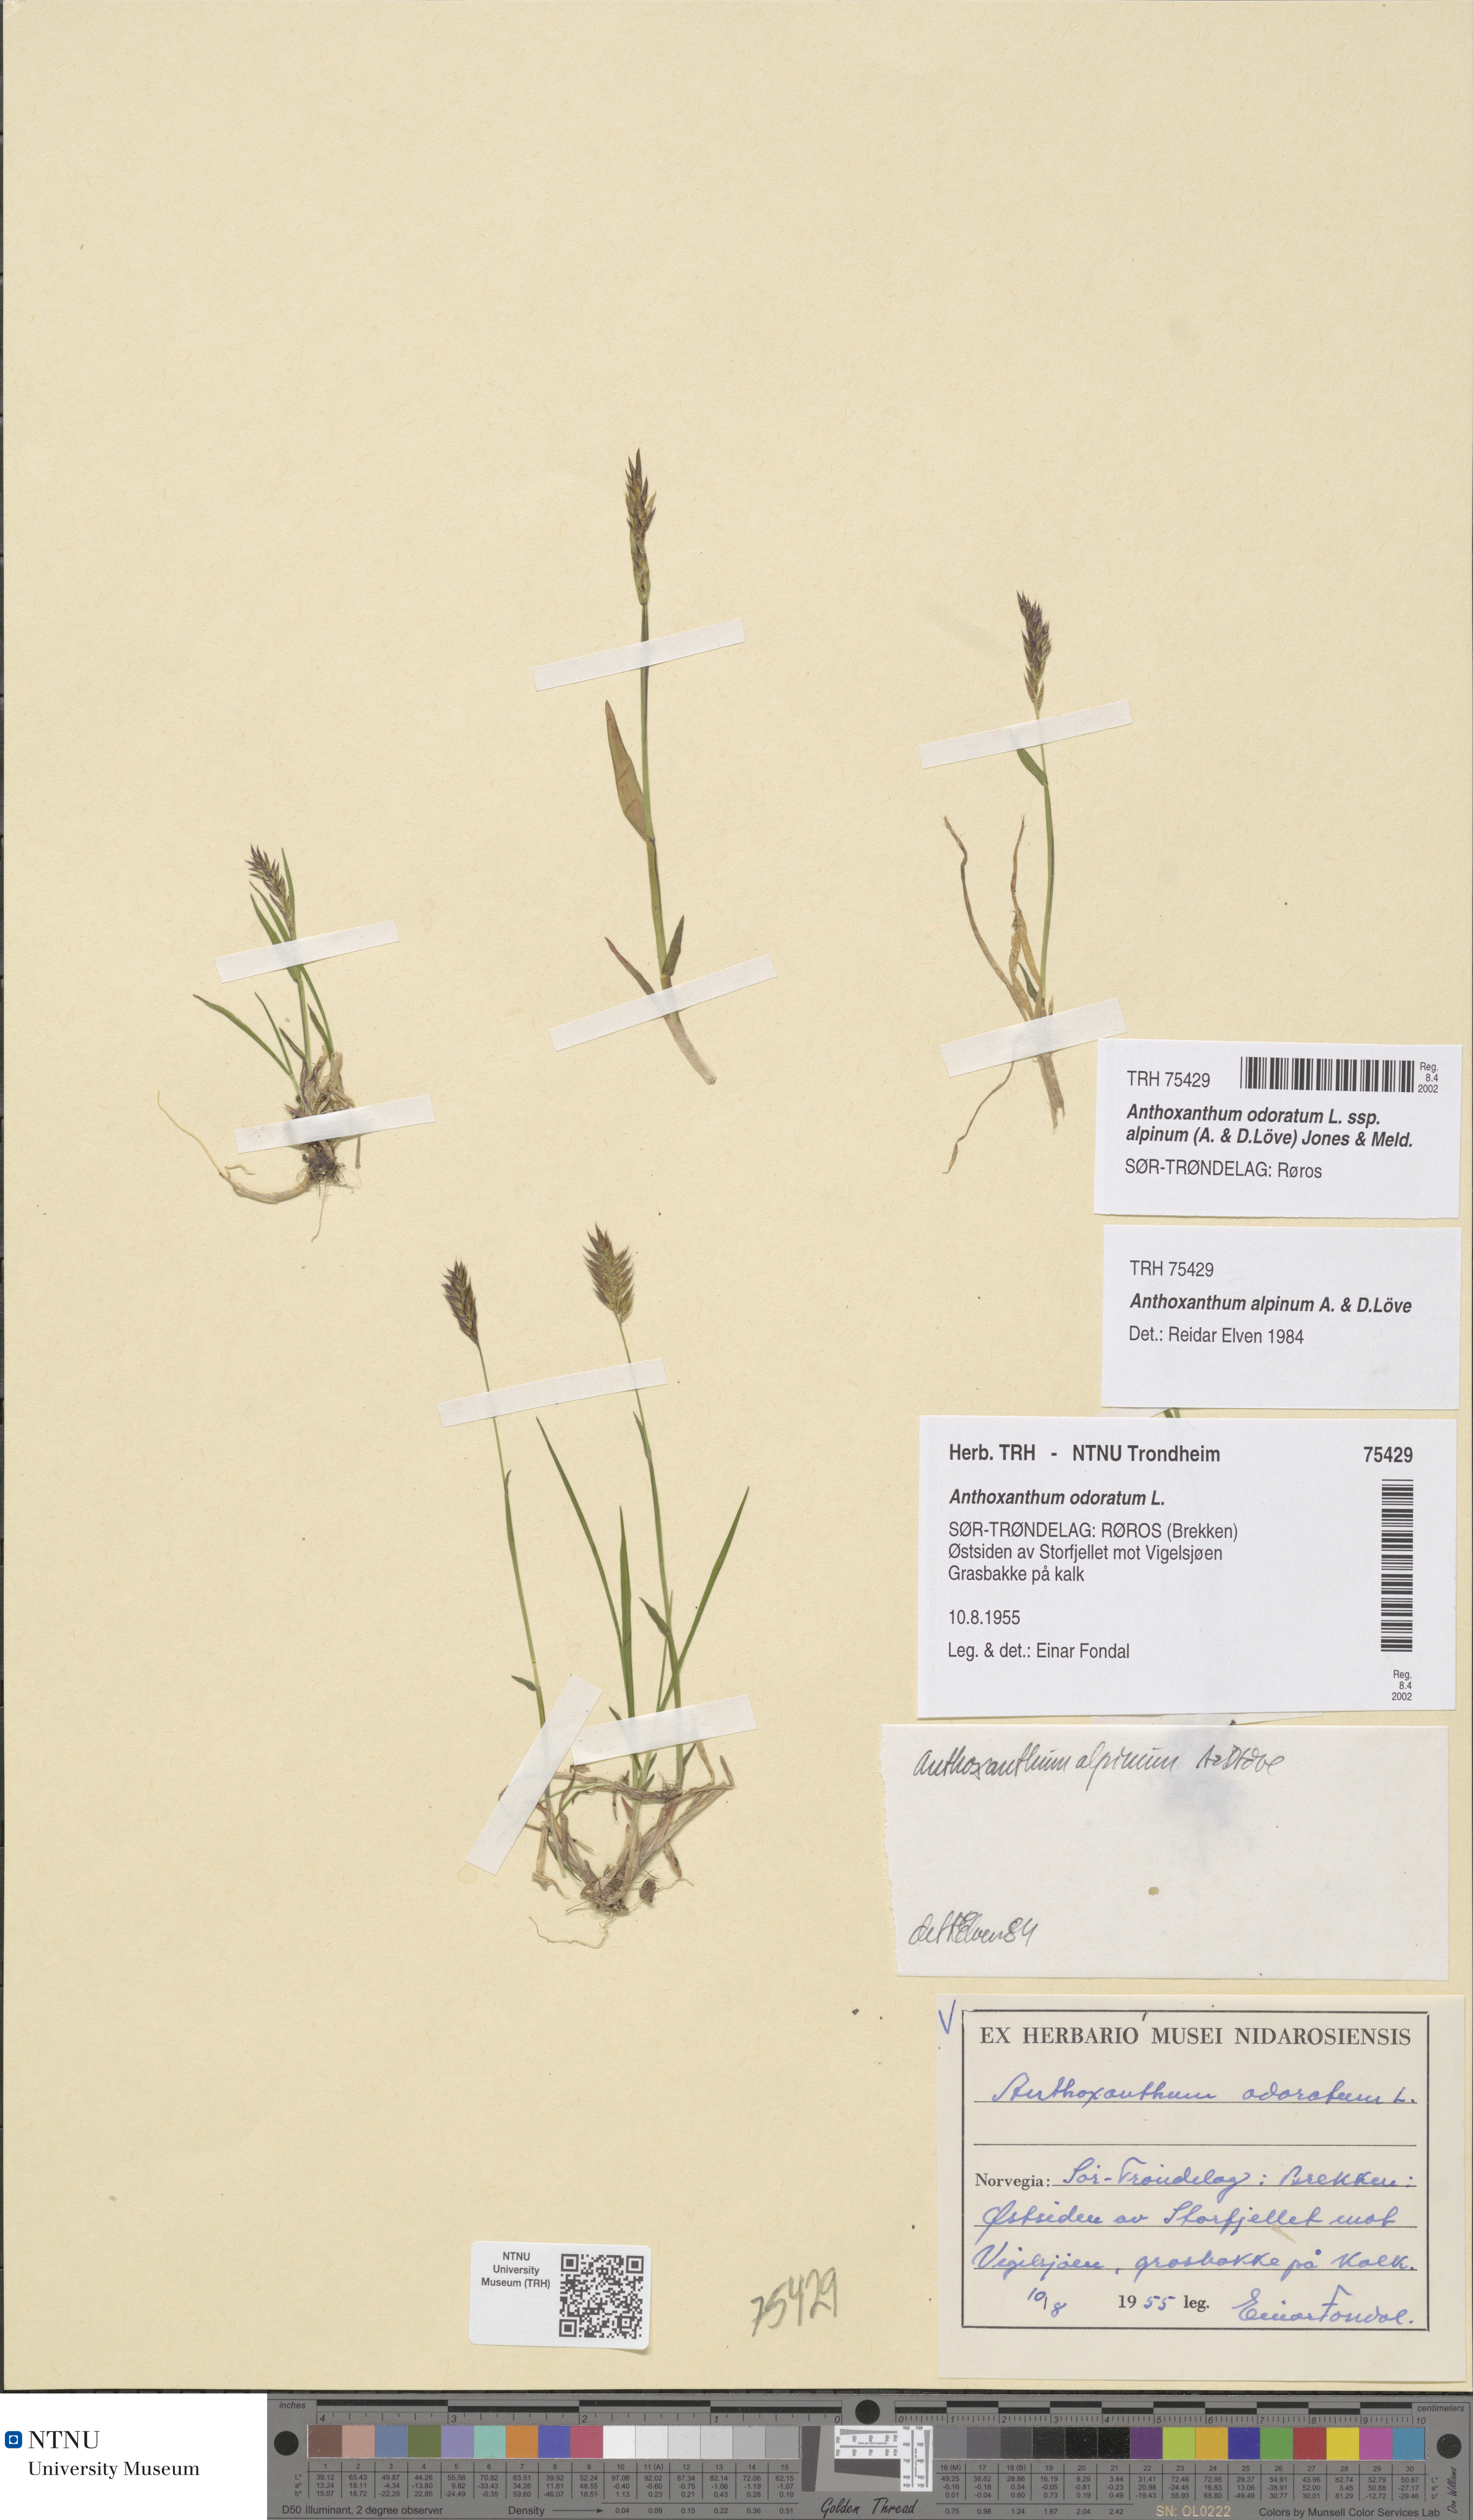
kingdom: Plantae
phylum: Tracheophyta
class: Liliopsida
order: Poales
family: Poaceae
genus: Anthoxanthum
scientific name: Anthoxanthum nipponicum
